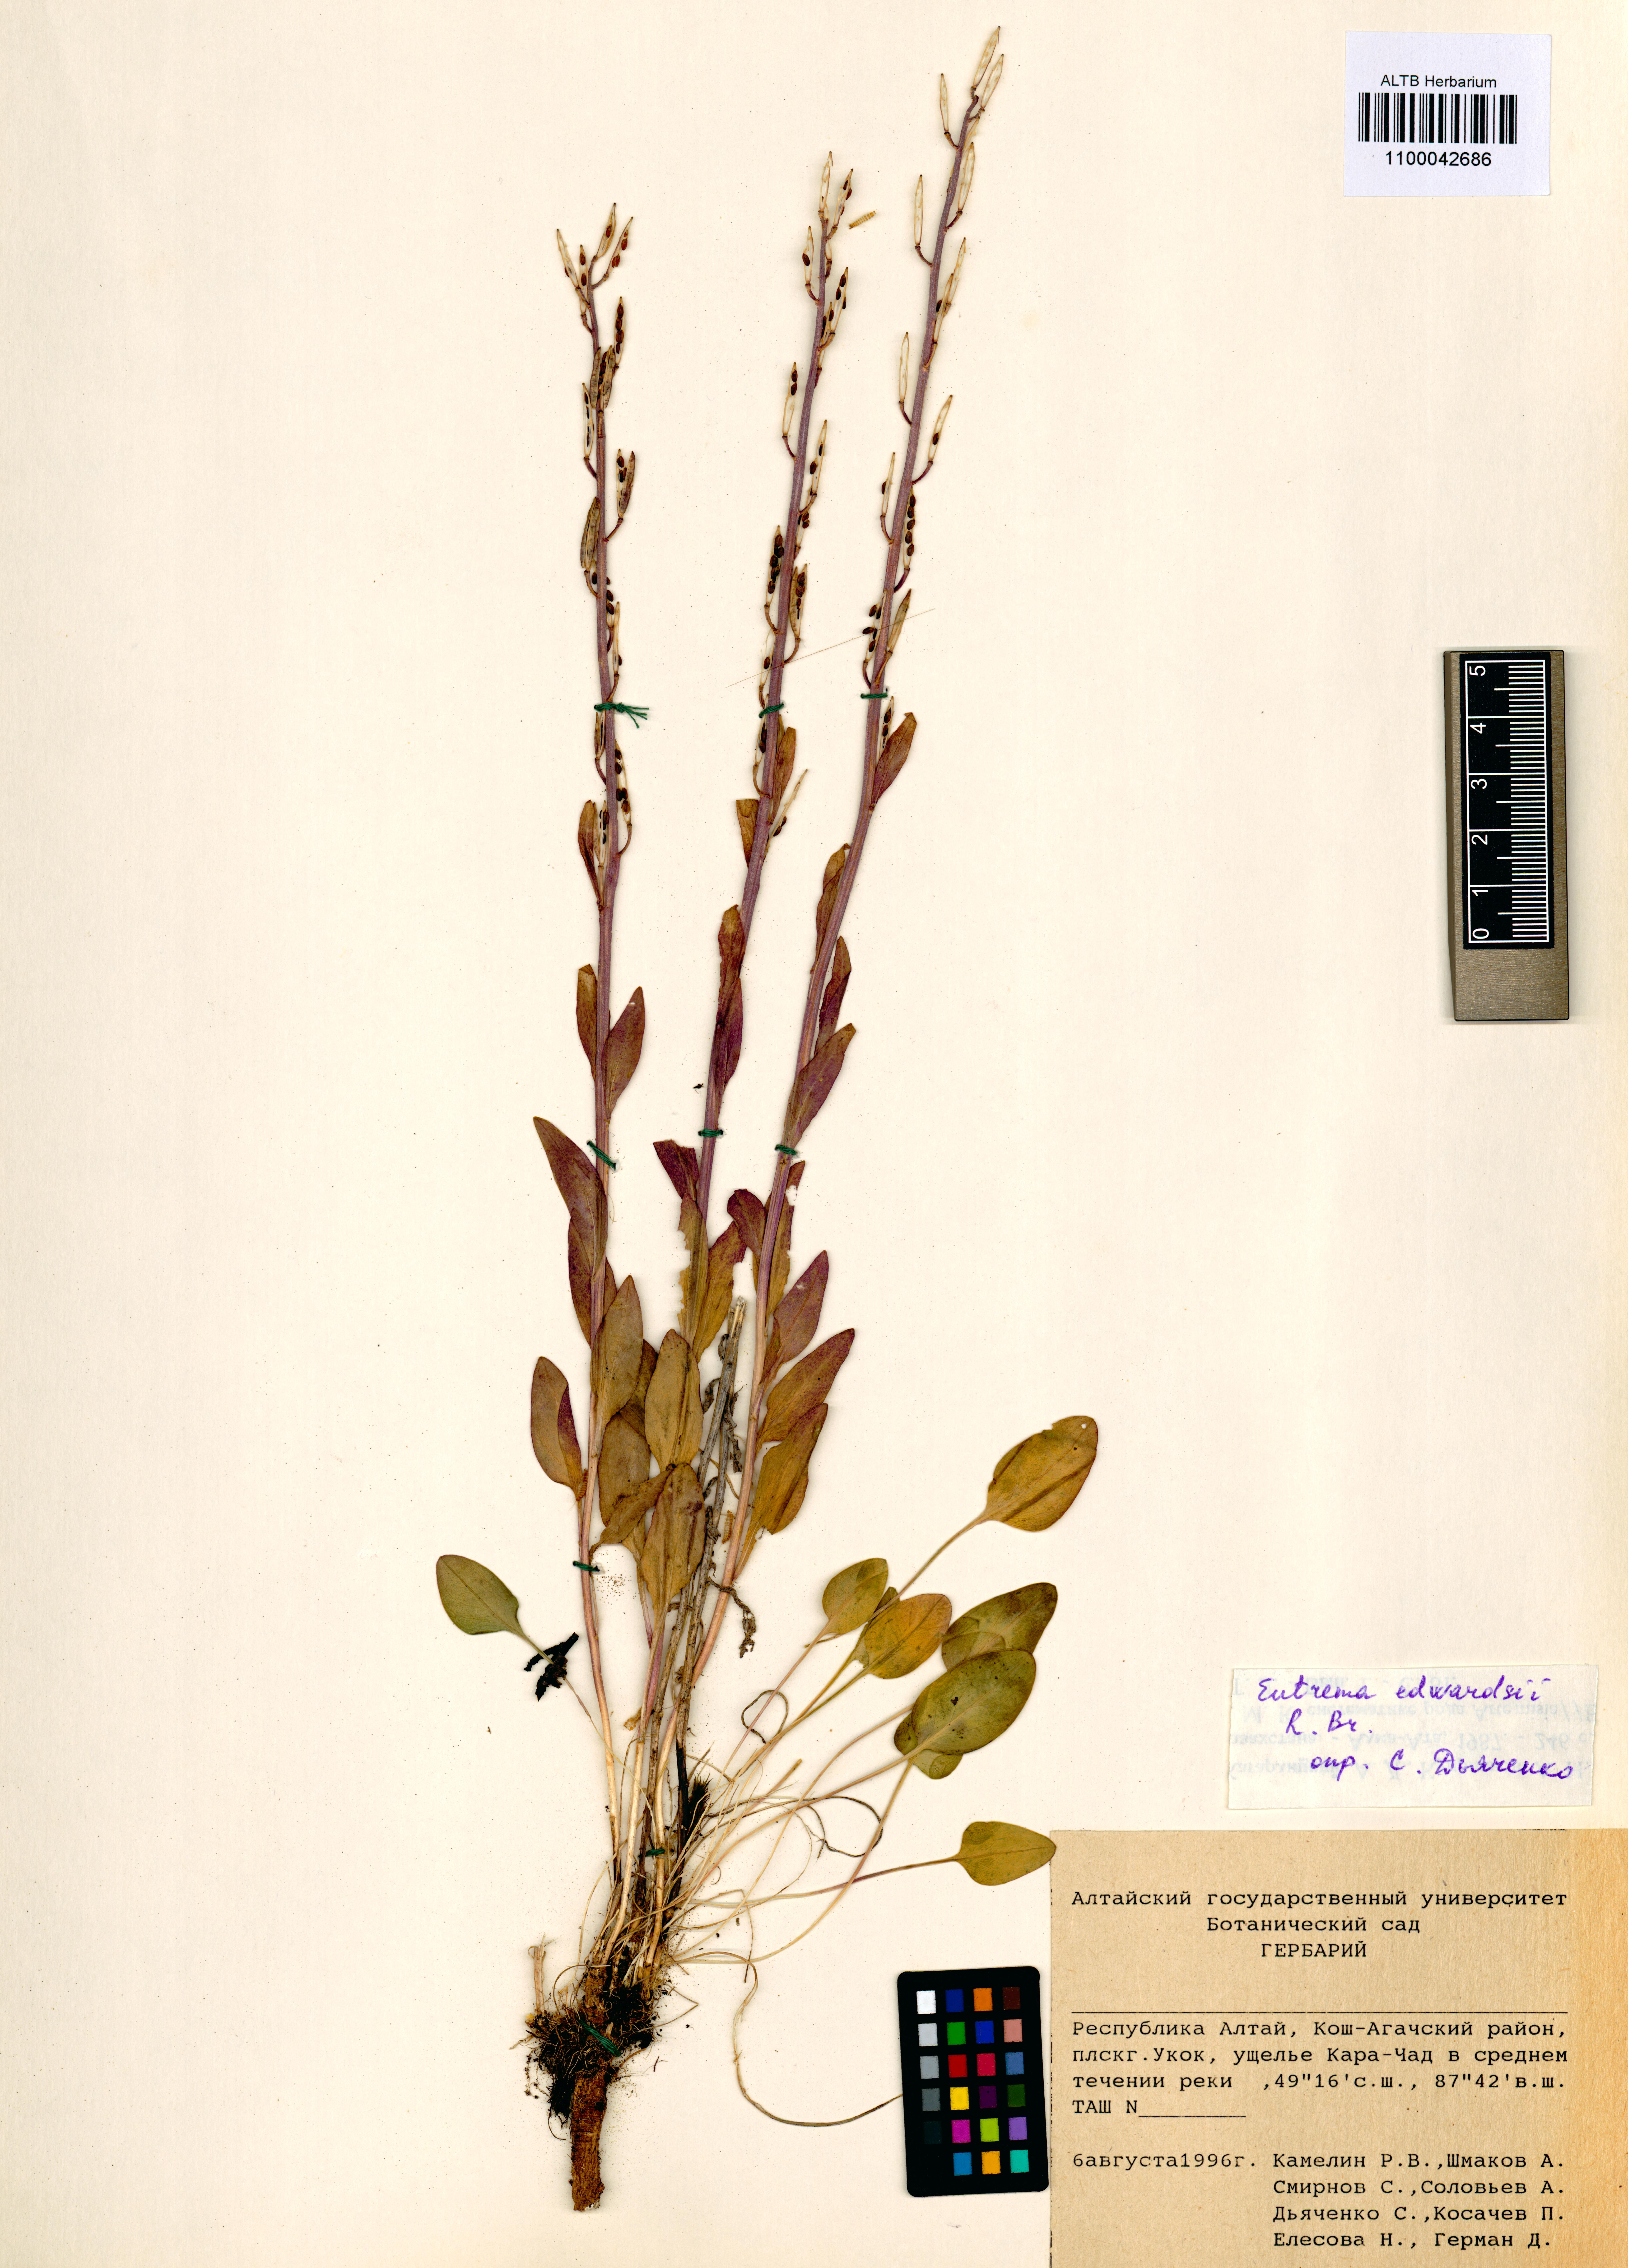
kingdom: Plantae
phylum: Tracheophyta
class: Magnoliopsida
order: Brassicales
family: Brassicaceae
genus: Eutrema
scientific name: Eutrema edwardsii
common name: Penland alpine fen mustard
